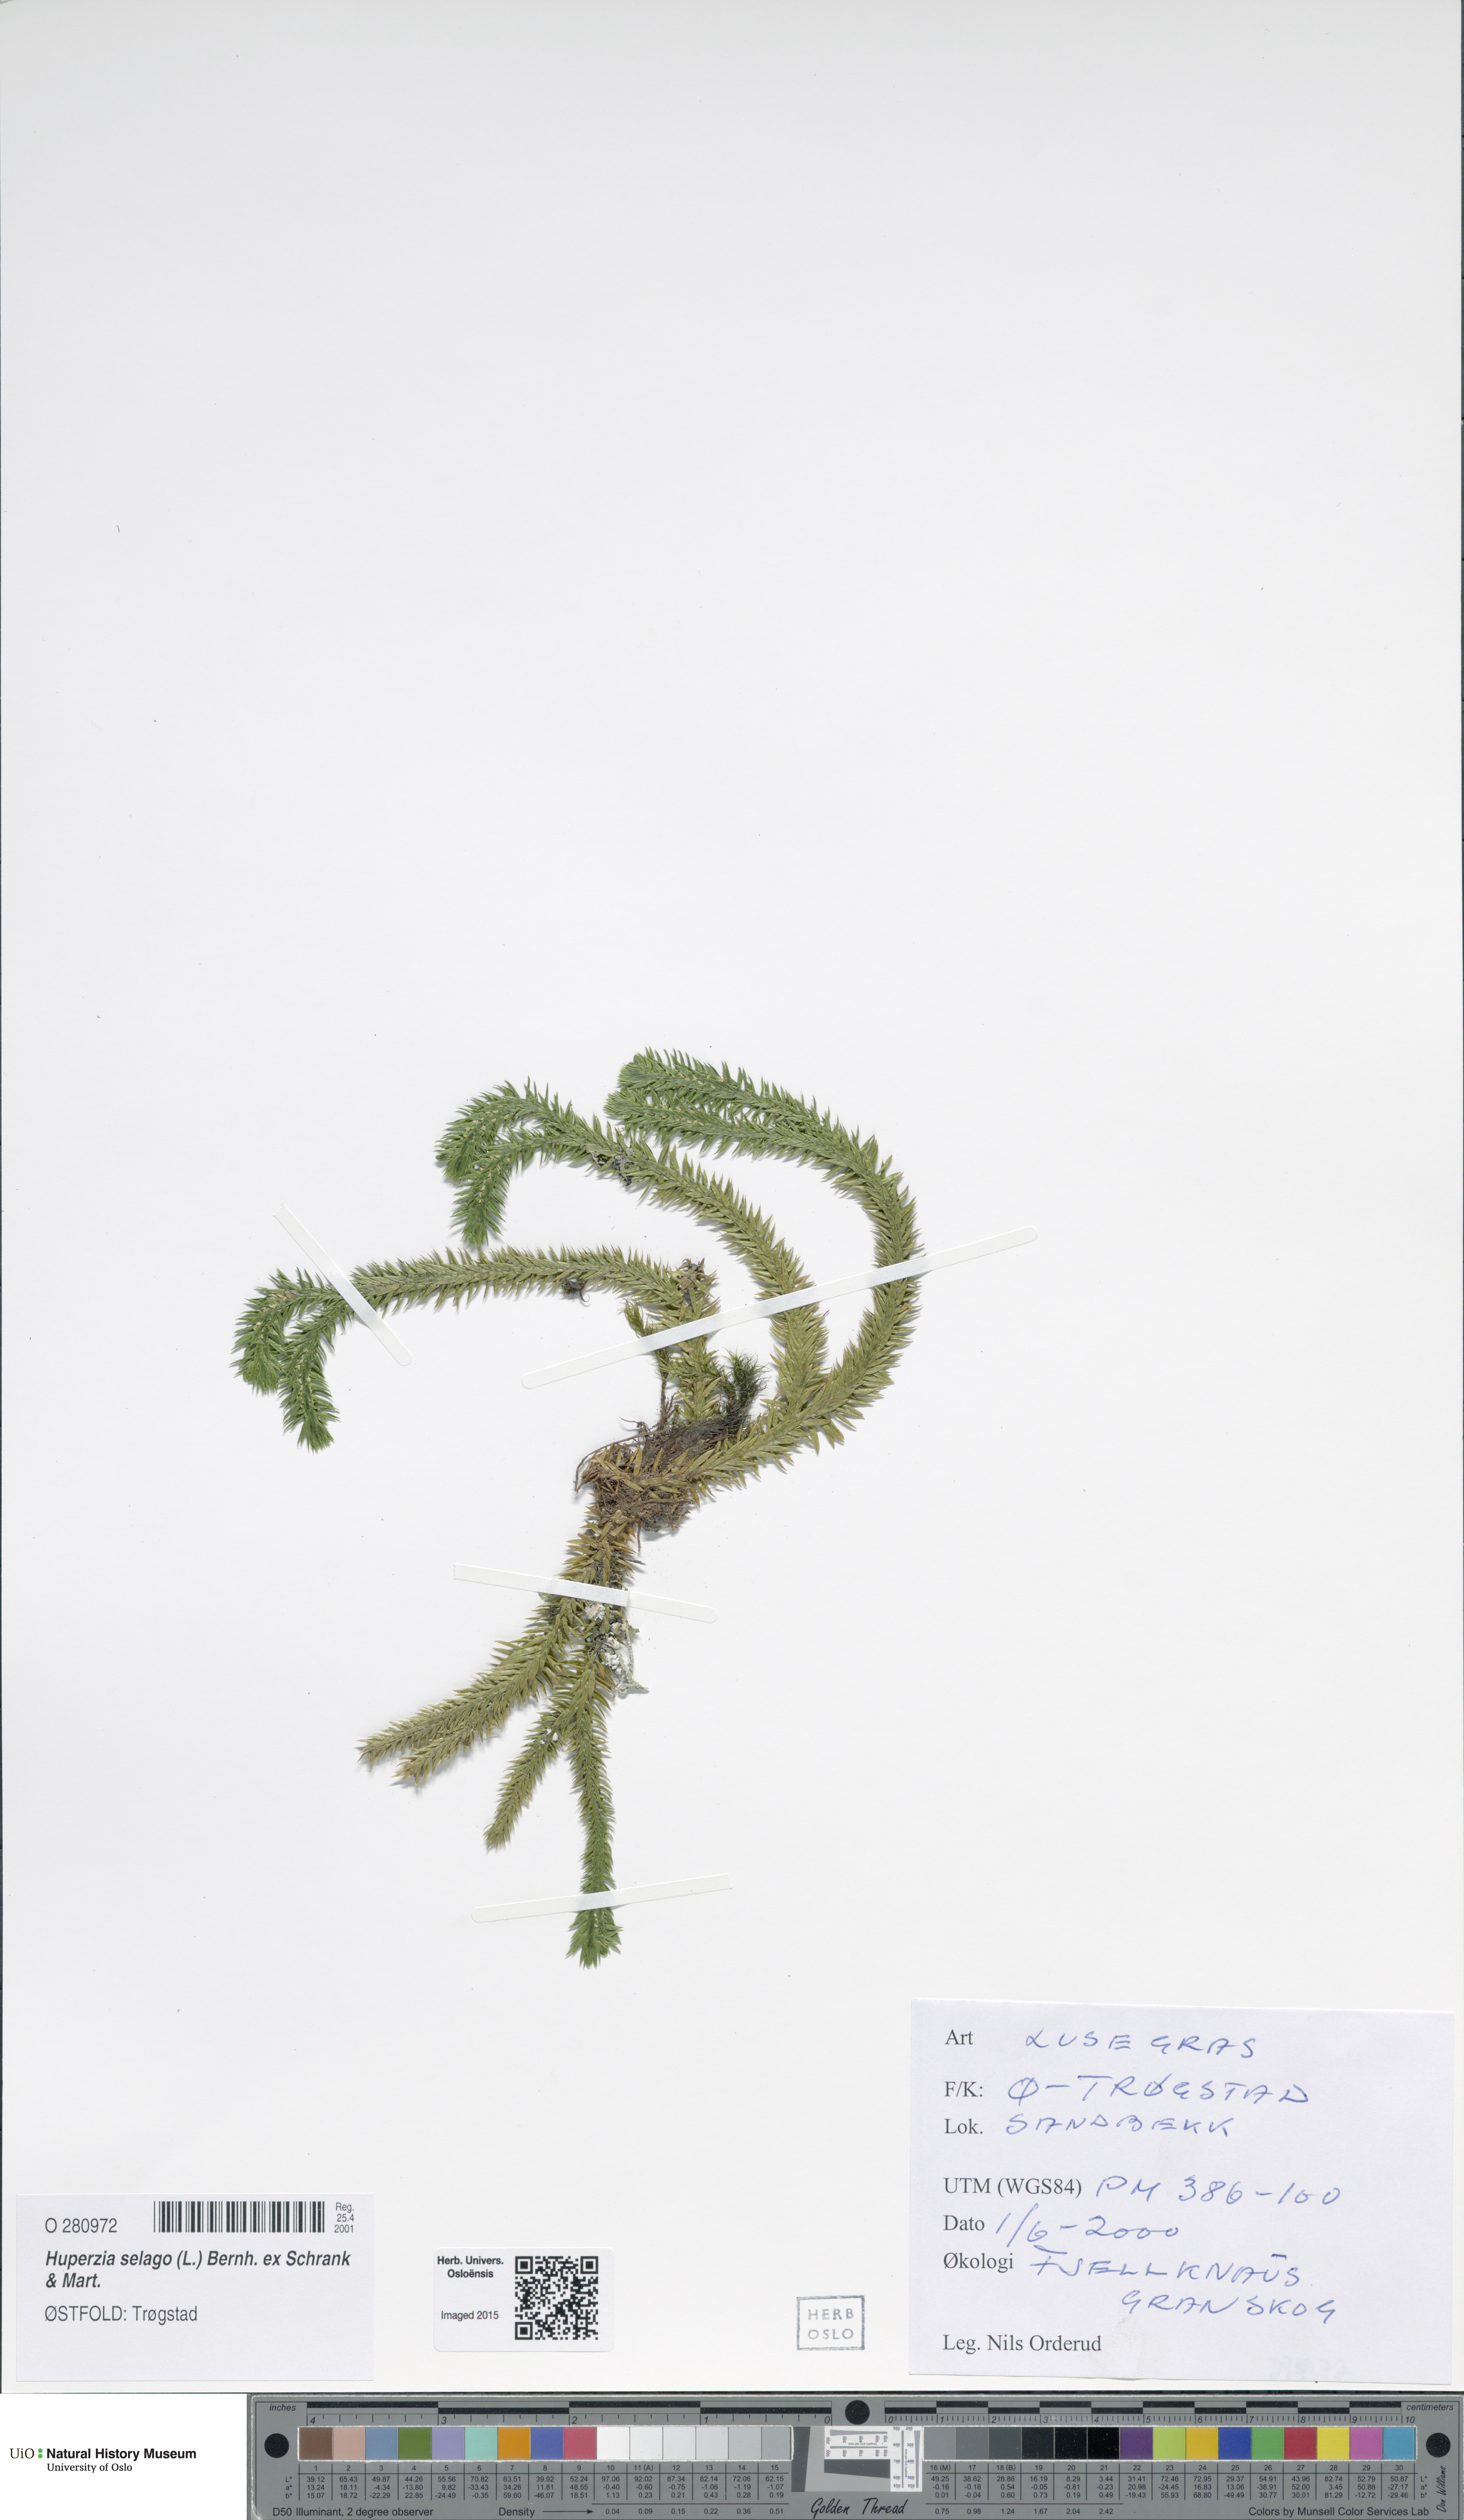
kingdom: Plantae
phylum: Tracheophyta
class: Lycopodiopsida
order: Lycopodiales
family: Lycopodiaceae
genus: Huperzia
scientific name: Huperzia selago
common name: Northern firmoss
